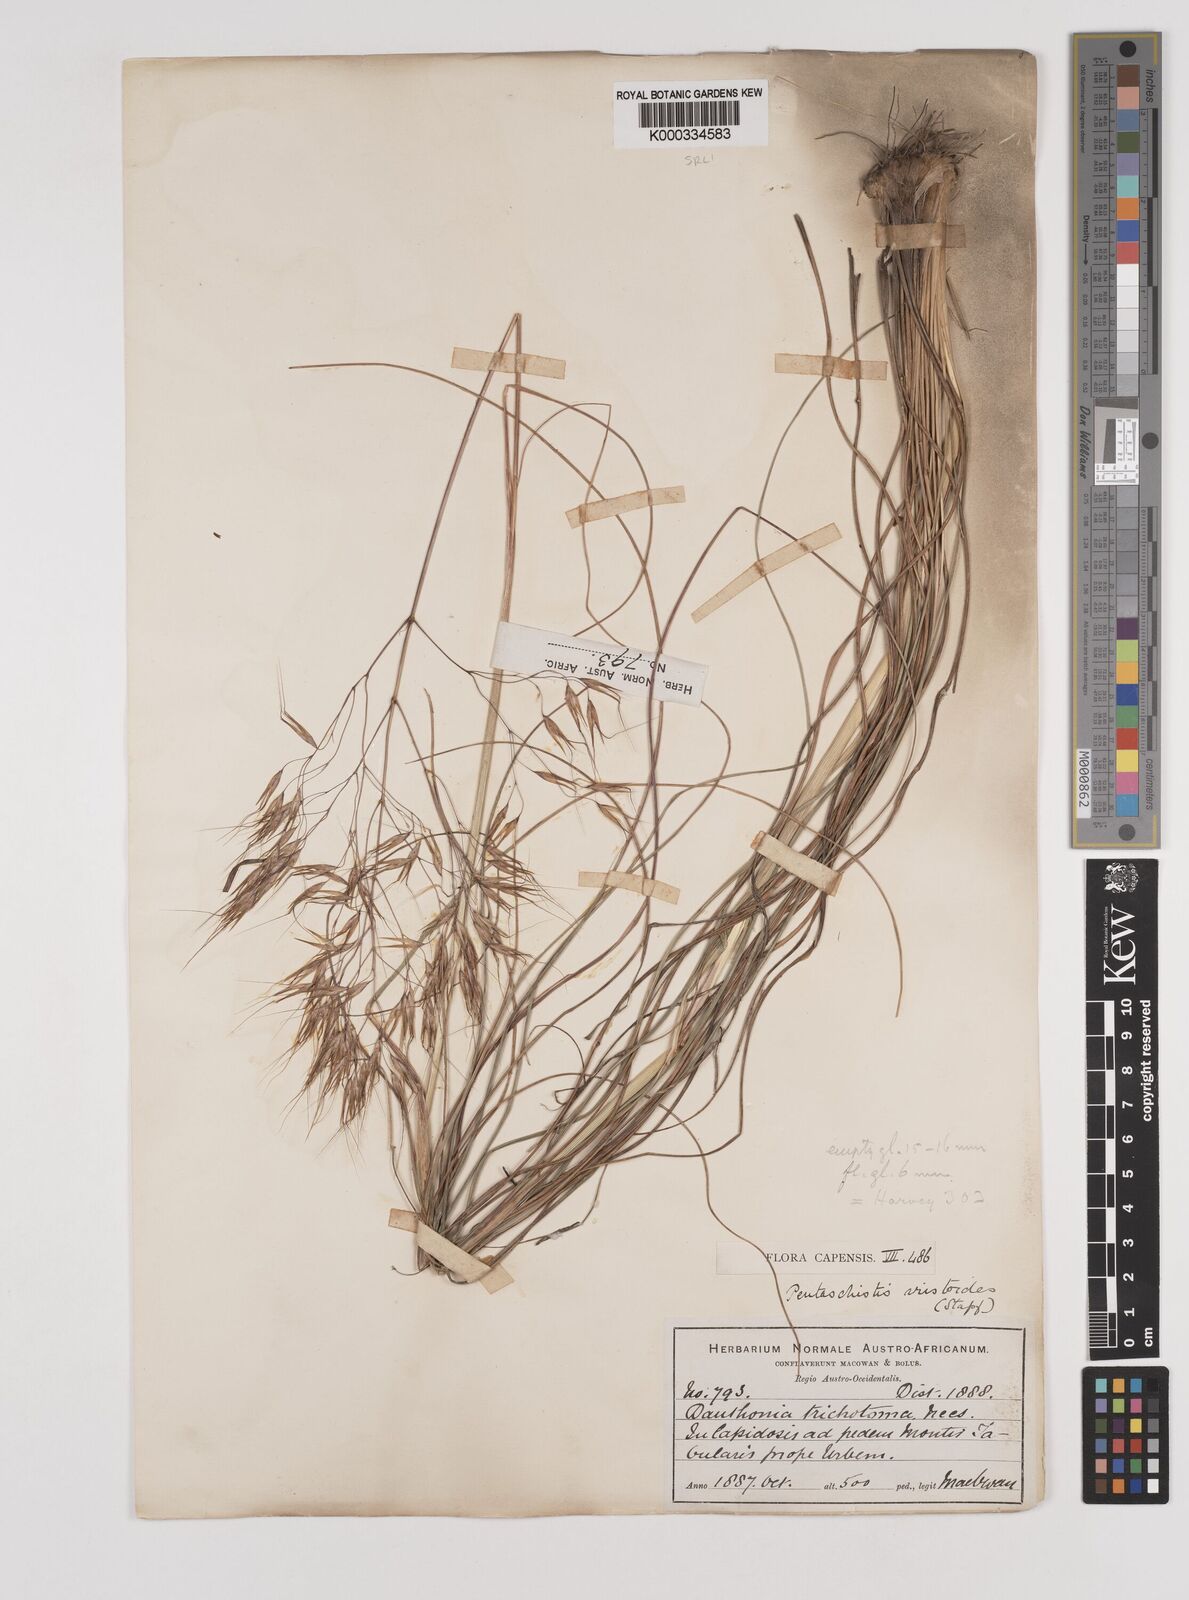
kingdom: Plantae
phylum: Tracheophyta
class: Liliopsida
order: Poales
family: Poaceae
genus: Pentameris
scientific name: Pentameris aristidoides
